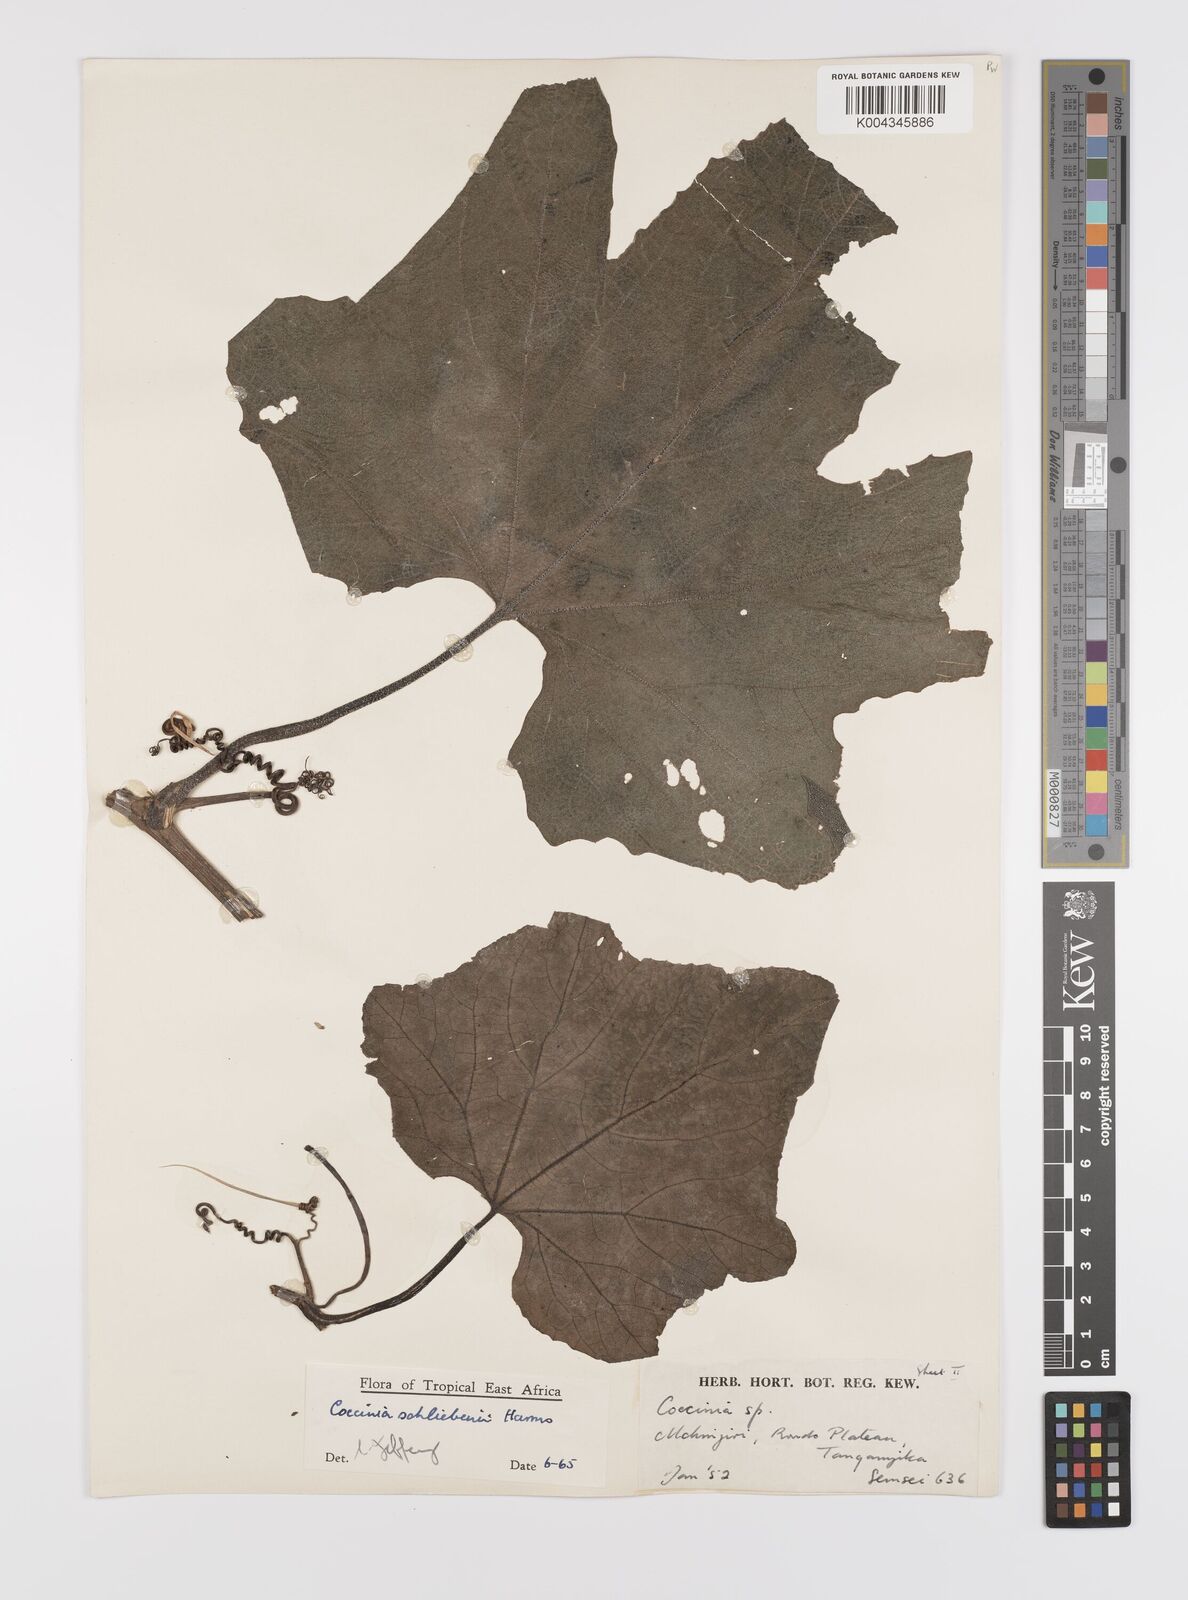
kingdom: Plantae
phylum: Tracheophyta
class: Magnoliopsida
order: Cucurbitales
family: Cucurbitaceae
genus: Coccinia
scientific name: Coccinia schliebenii
